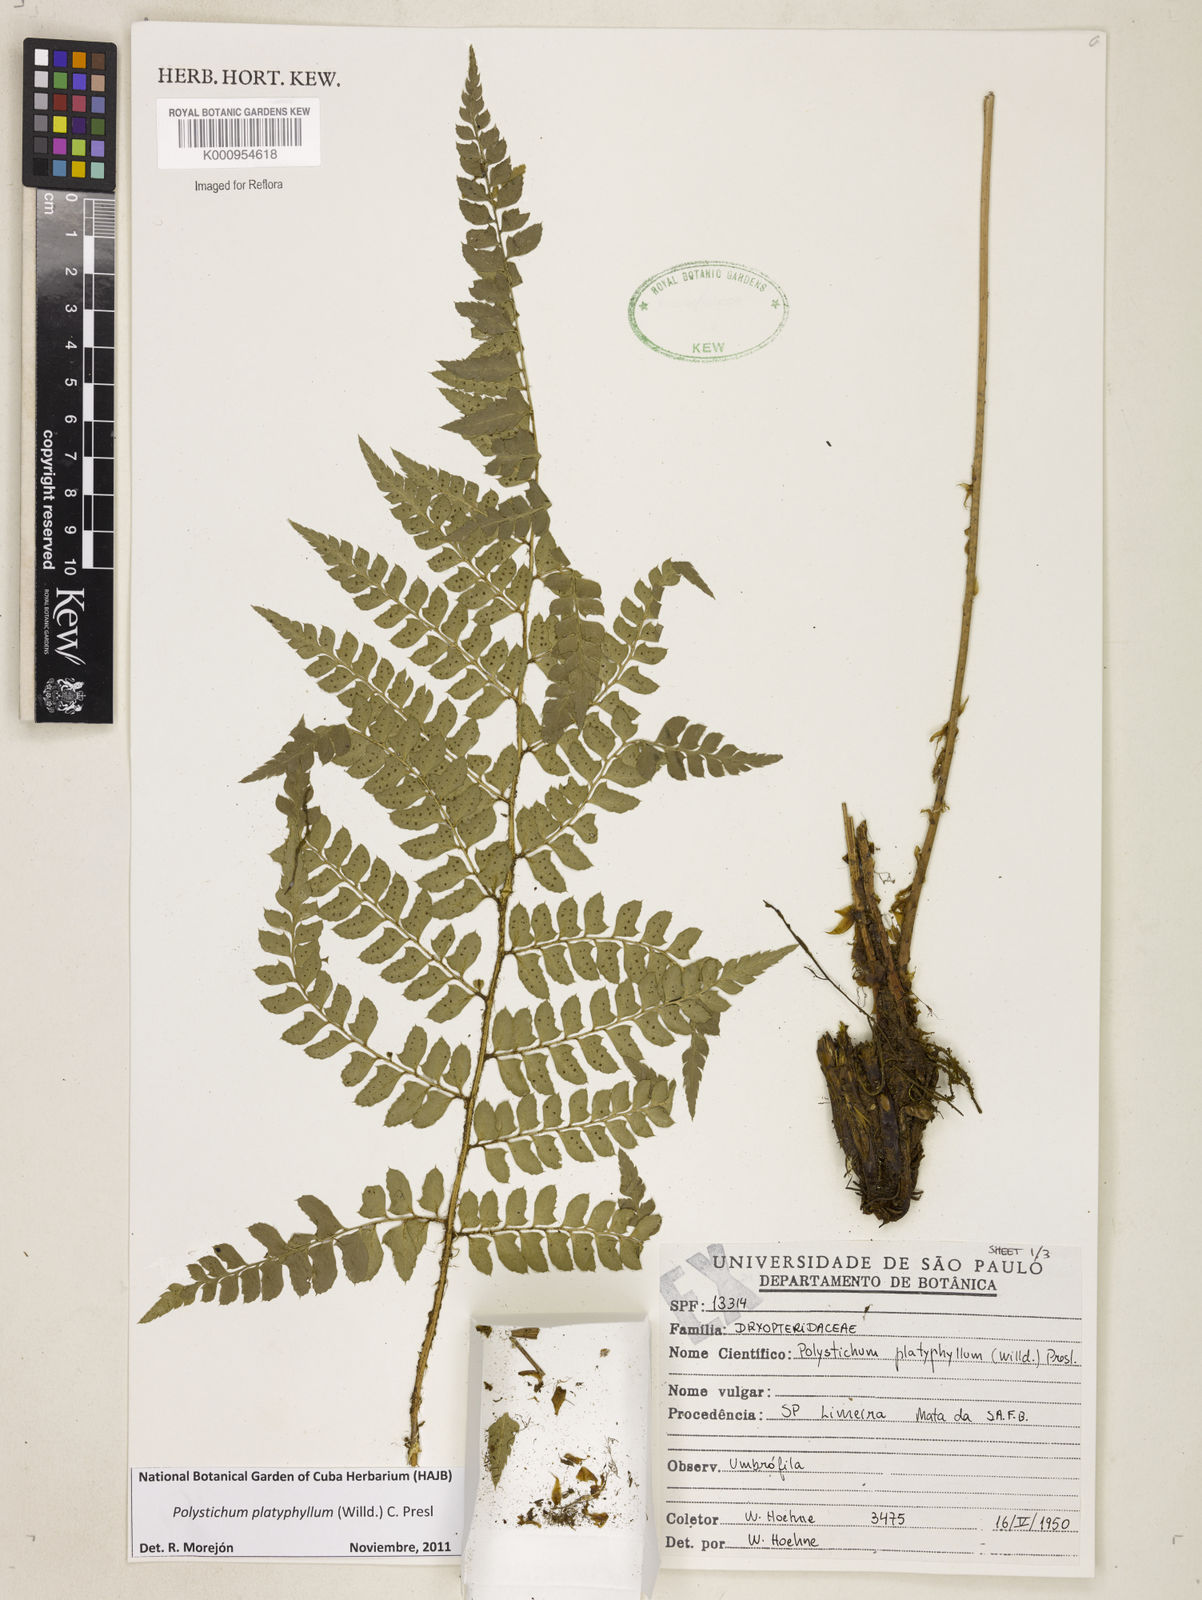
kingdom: Plantae
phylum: Tracheophyta
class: Polypodiopsida
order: Polypodiales
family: Dryopteridaceae
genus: Polystichum
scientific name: Polystichum platyphyllum
